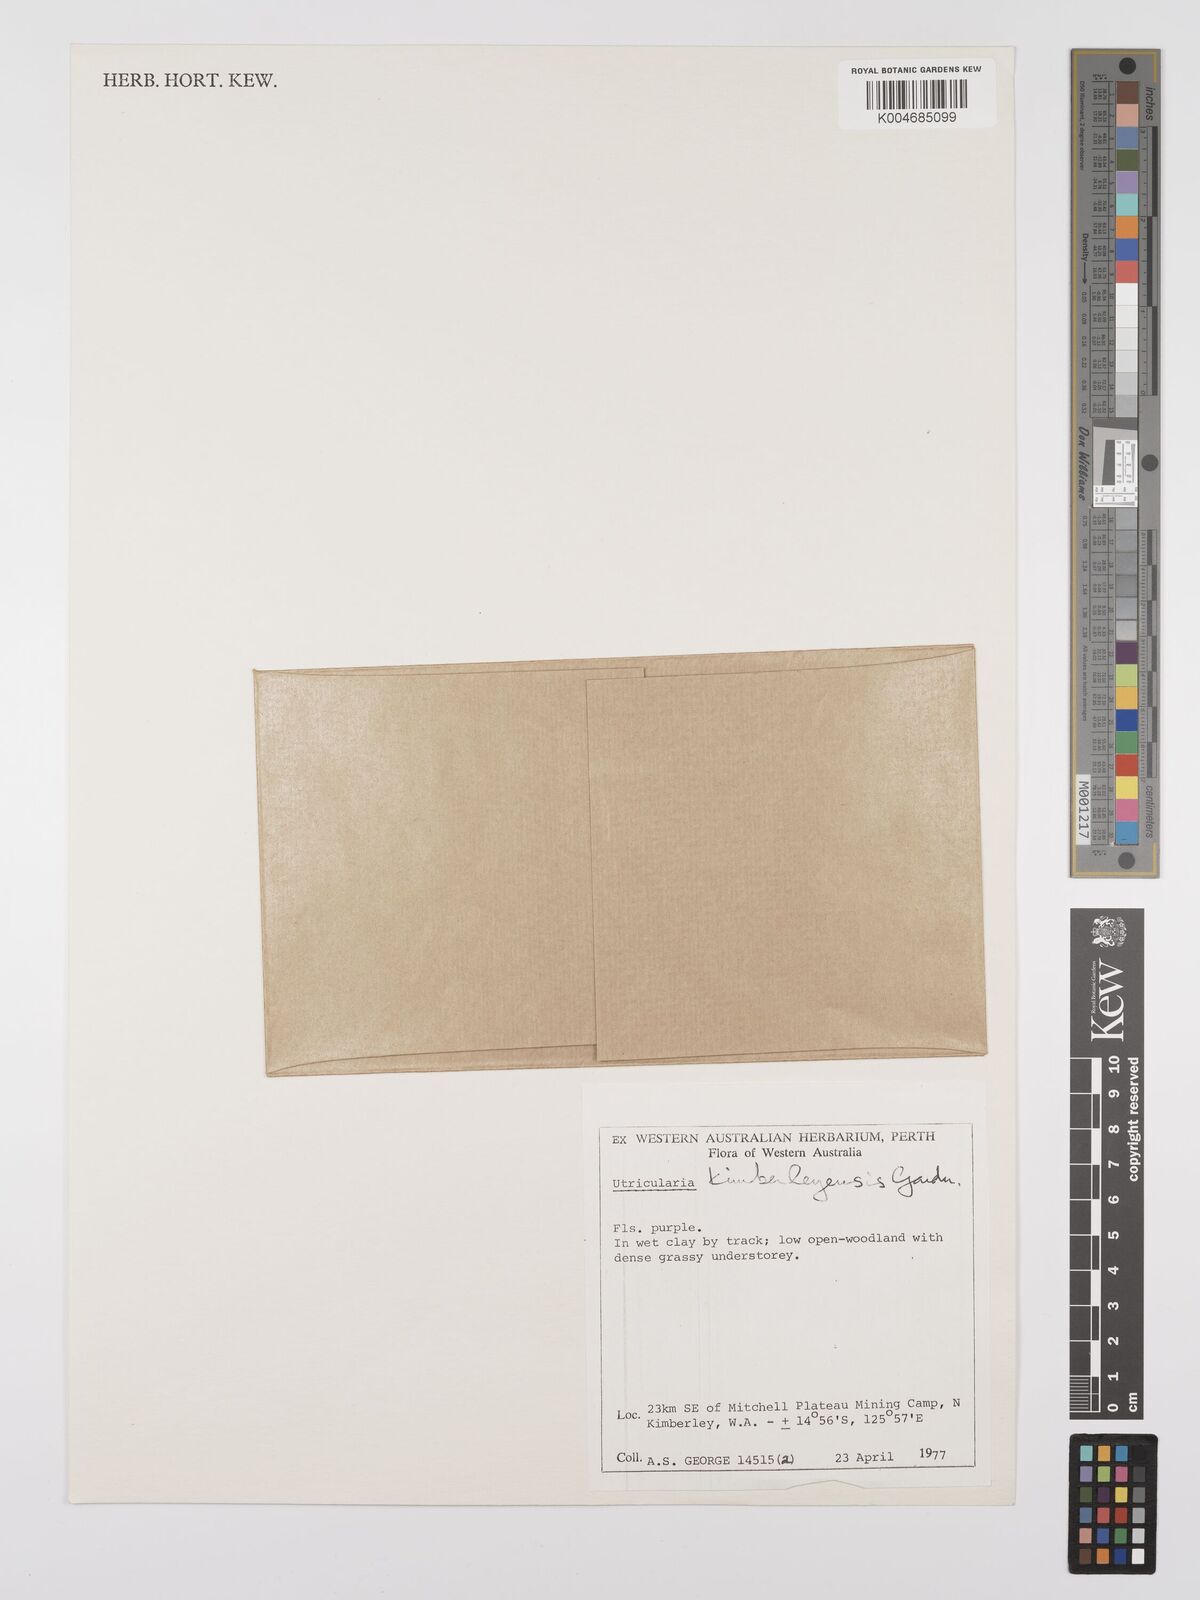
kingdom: Plantae
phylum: Tracheophyta
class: Magnoliopsida
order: Lamiales
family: Lentibulariaceae
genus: Utricularia
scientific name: Utricularia dichotoma
